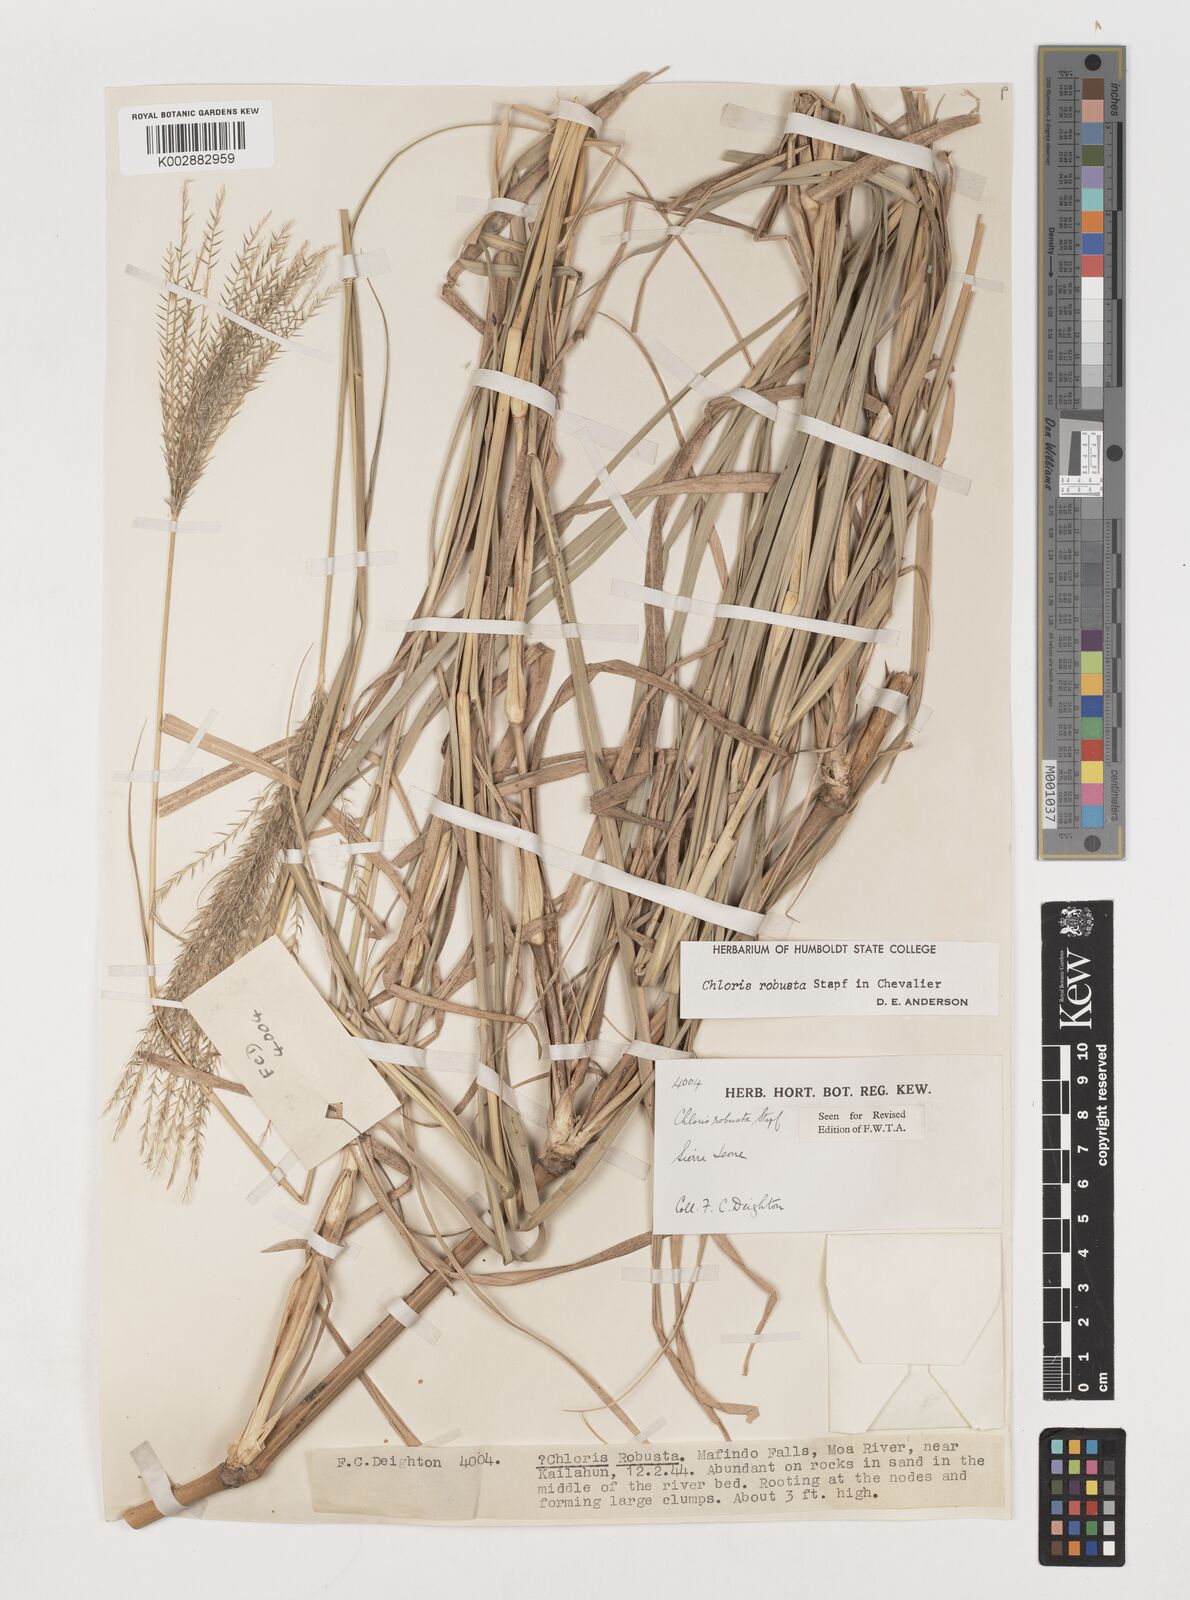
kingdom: Plantae
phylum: Tracheophyta
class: Liliopsida
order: Poales
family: Poaceae
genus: Chloris
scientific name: Chloris robusta
